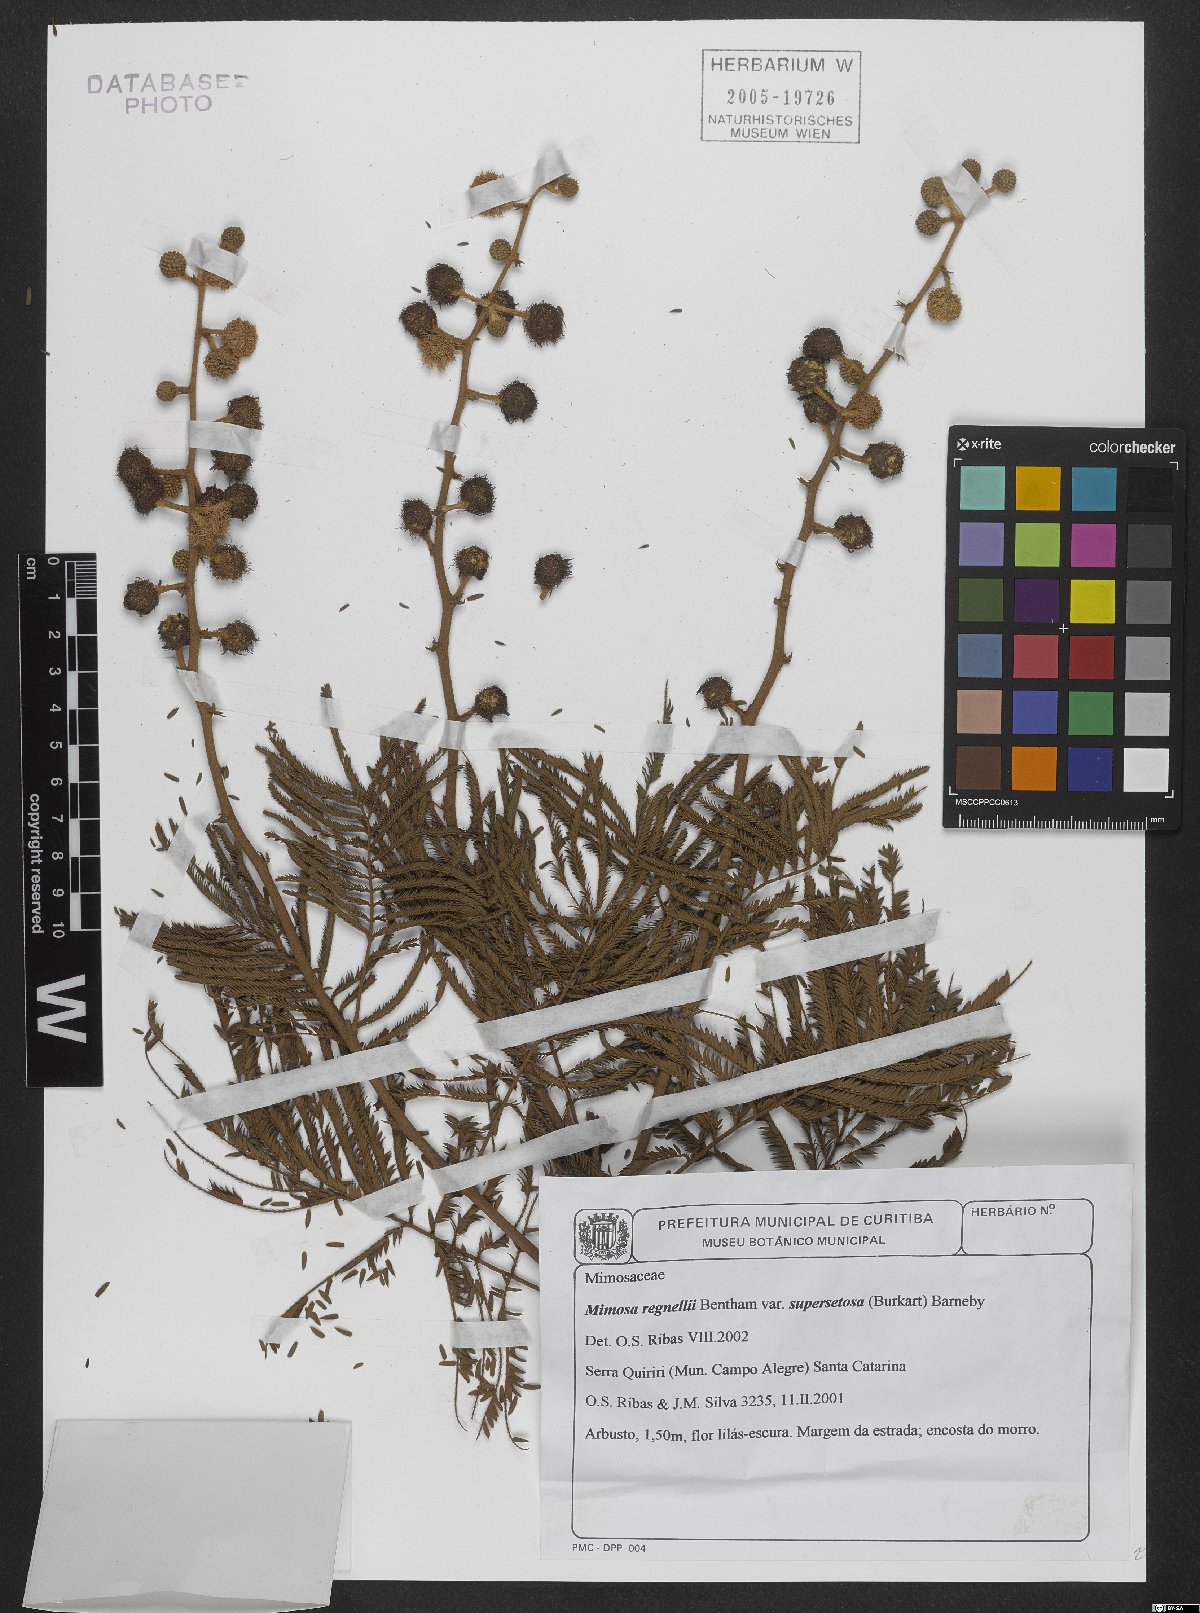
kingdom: Plantae
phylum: Tracheophyta
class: Magnoliopsida
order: Fabales
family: Fabaceae
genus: Mimosa
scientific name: Mimosa regnellii
